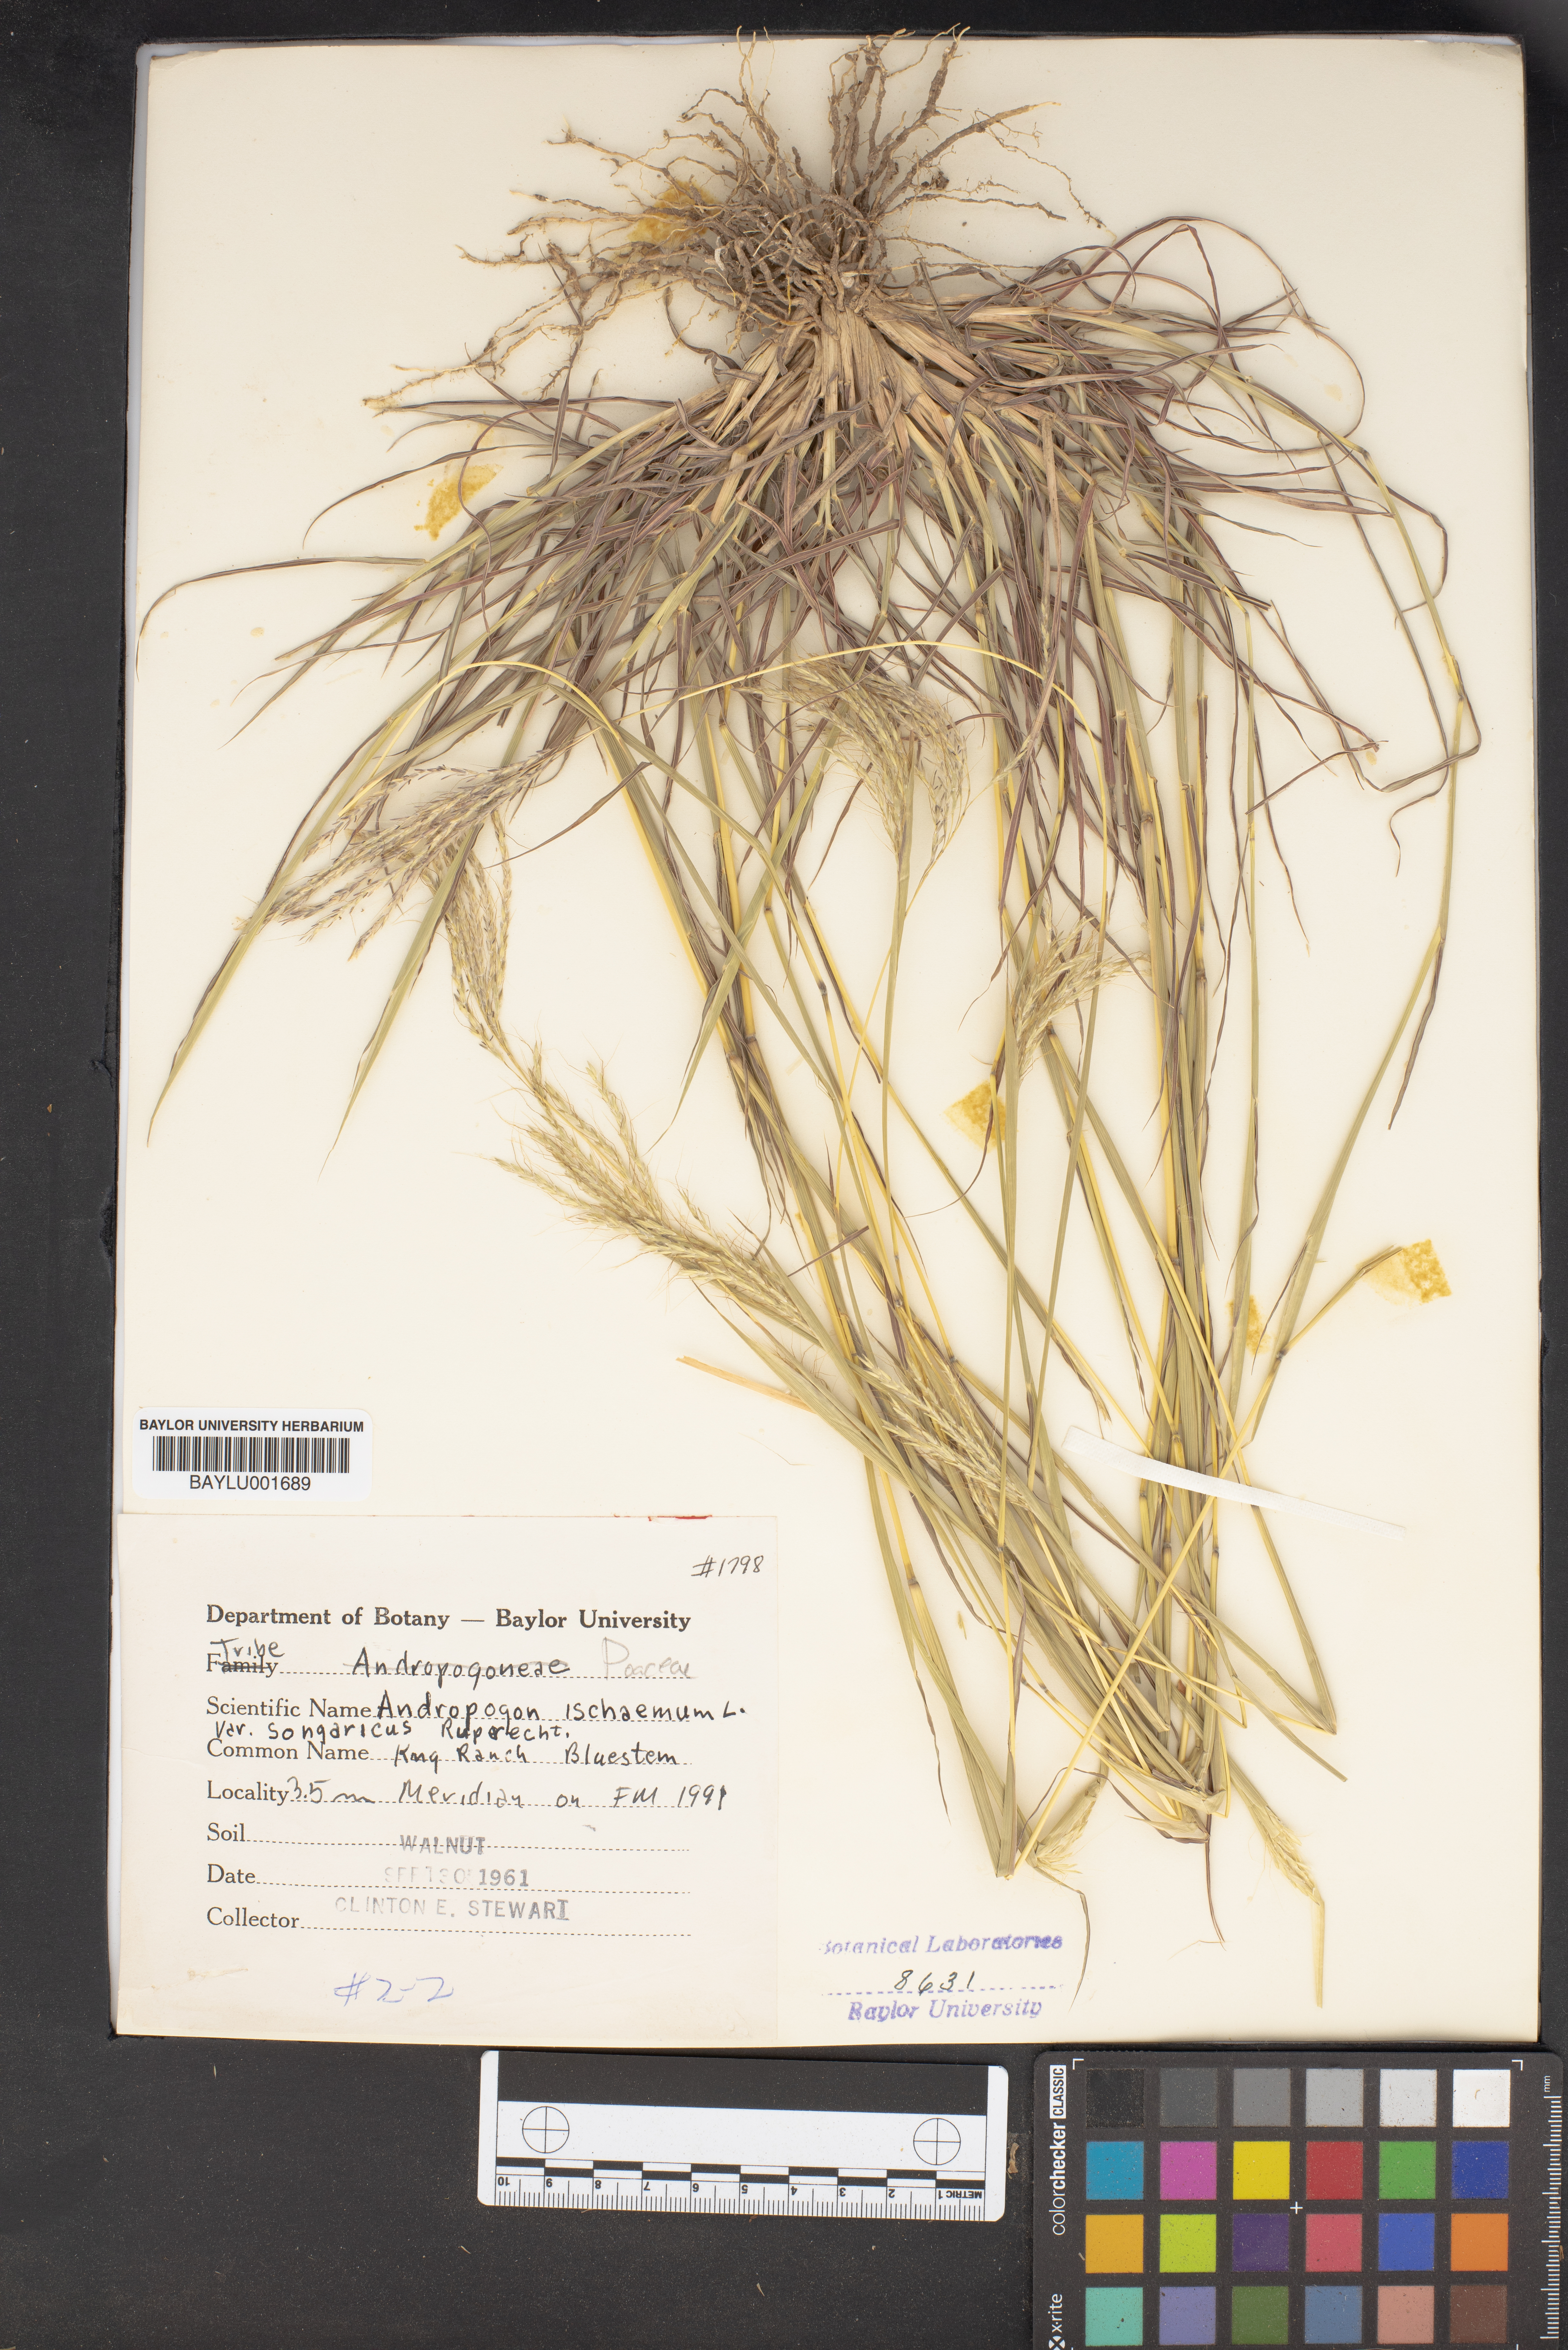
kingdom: Plantae
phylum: Tracheophyta
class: Liliopsida
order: Poales
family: Poaceae
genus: Bothriochloa
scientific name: Bothriochloa ischaemum
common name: Yellow bluestem
